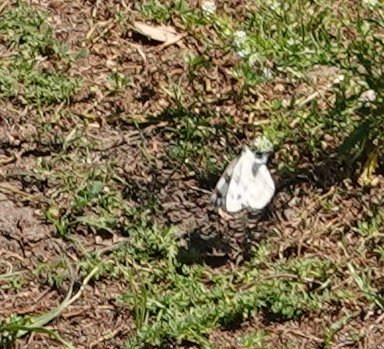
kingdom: Animalia
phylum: Arthropoda
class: Insecta
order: Lepidoptera
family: Pieridae
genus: Pontia
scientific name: Pontia protodice
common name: Checkered White
